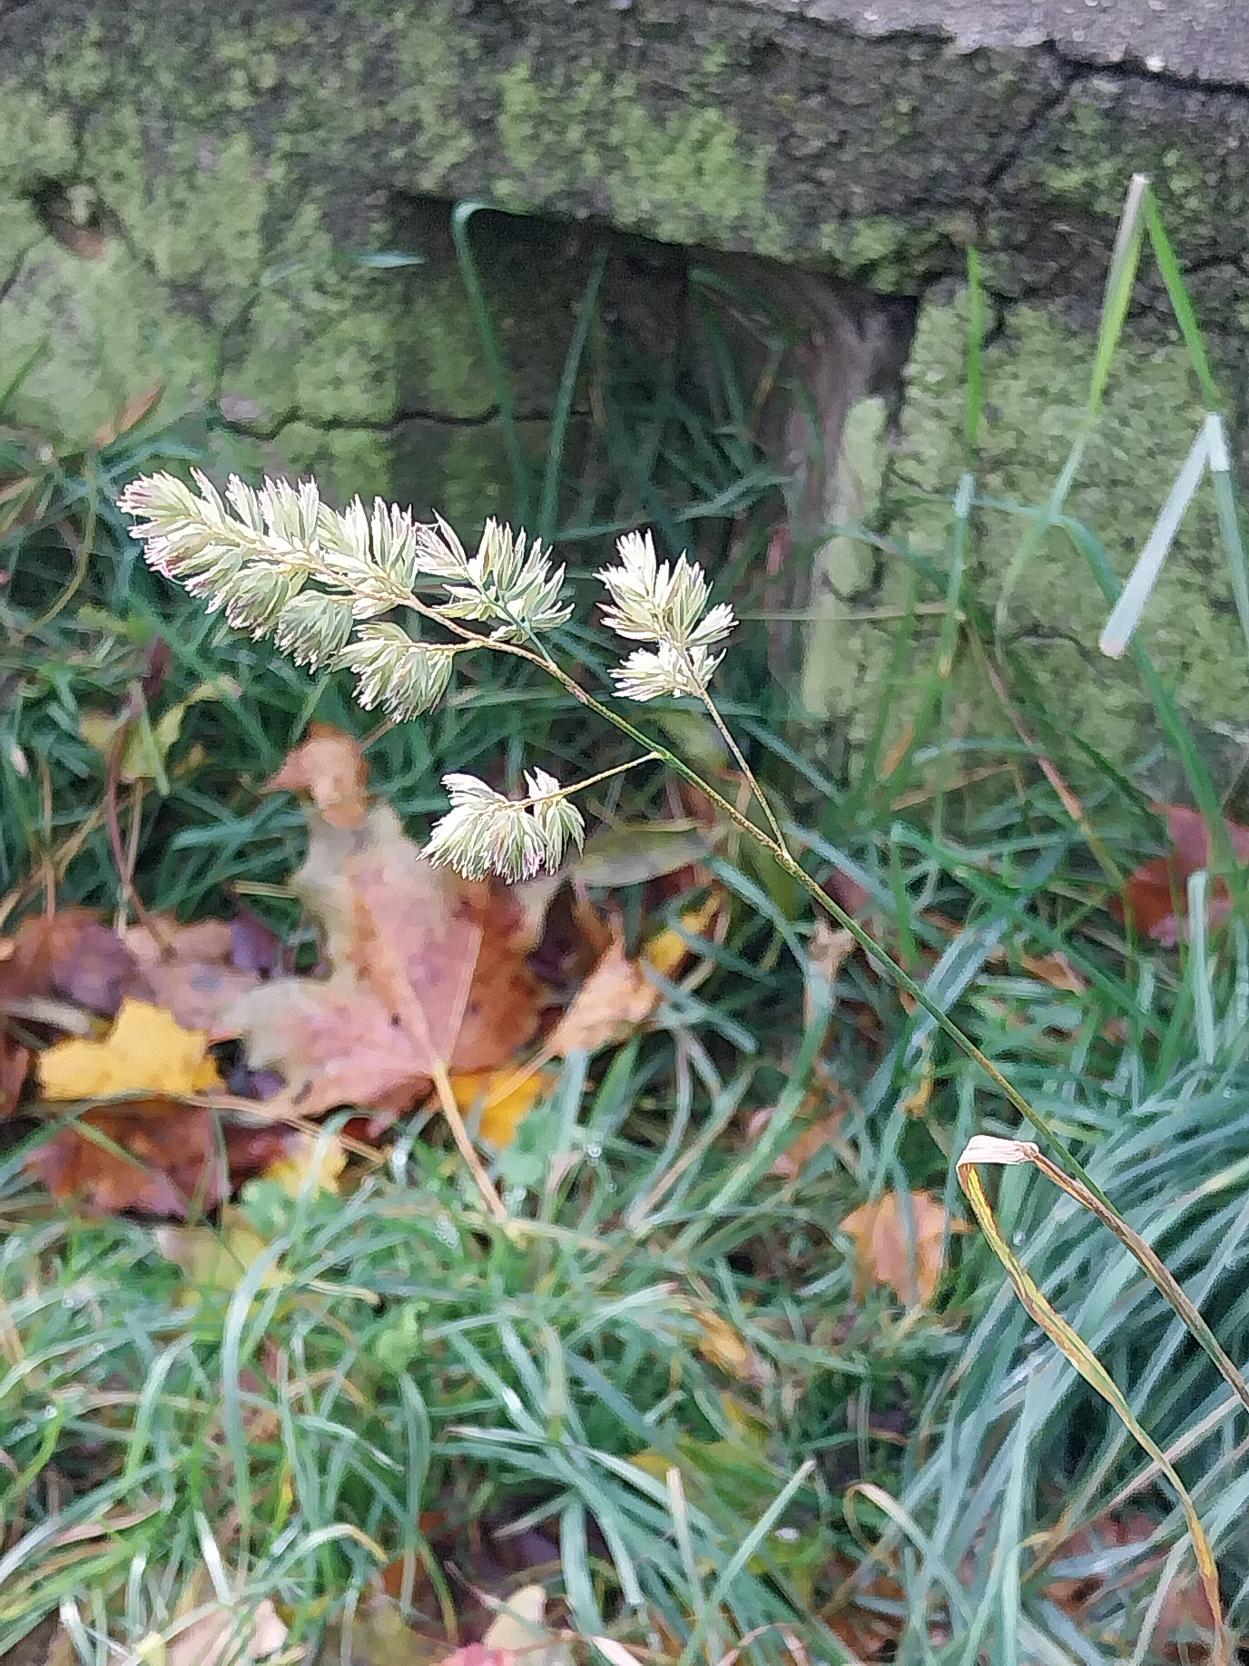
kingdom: Plantae
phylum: Tracheophyta
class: Liliopsida
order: Poales
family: Poaceae
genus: Dactylis
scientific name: Dactylis glomerata
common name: Almindelig hundegræs
